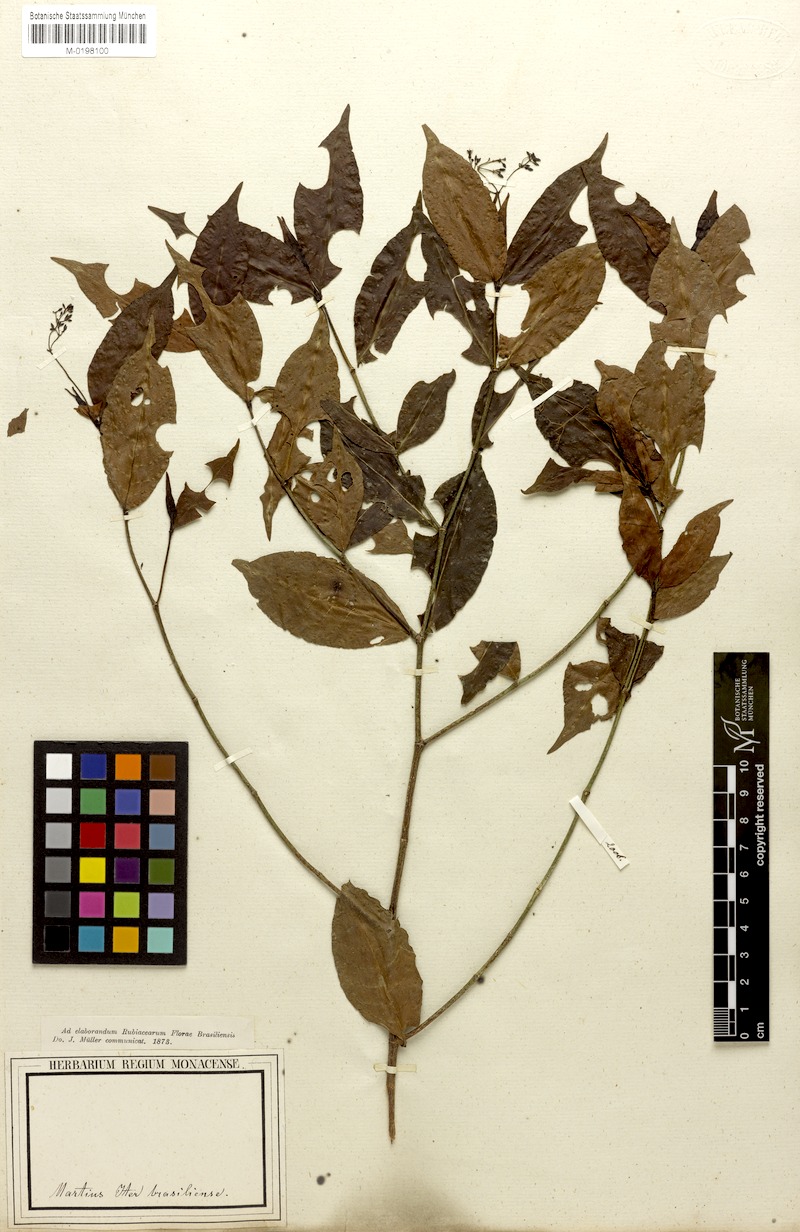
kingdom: Plantae
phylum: Tracheophyta
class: Magnoliopsida
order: Gentianales
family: Rubiaceae
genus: Psychotria
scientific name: Psychotria capillacea
